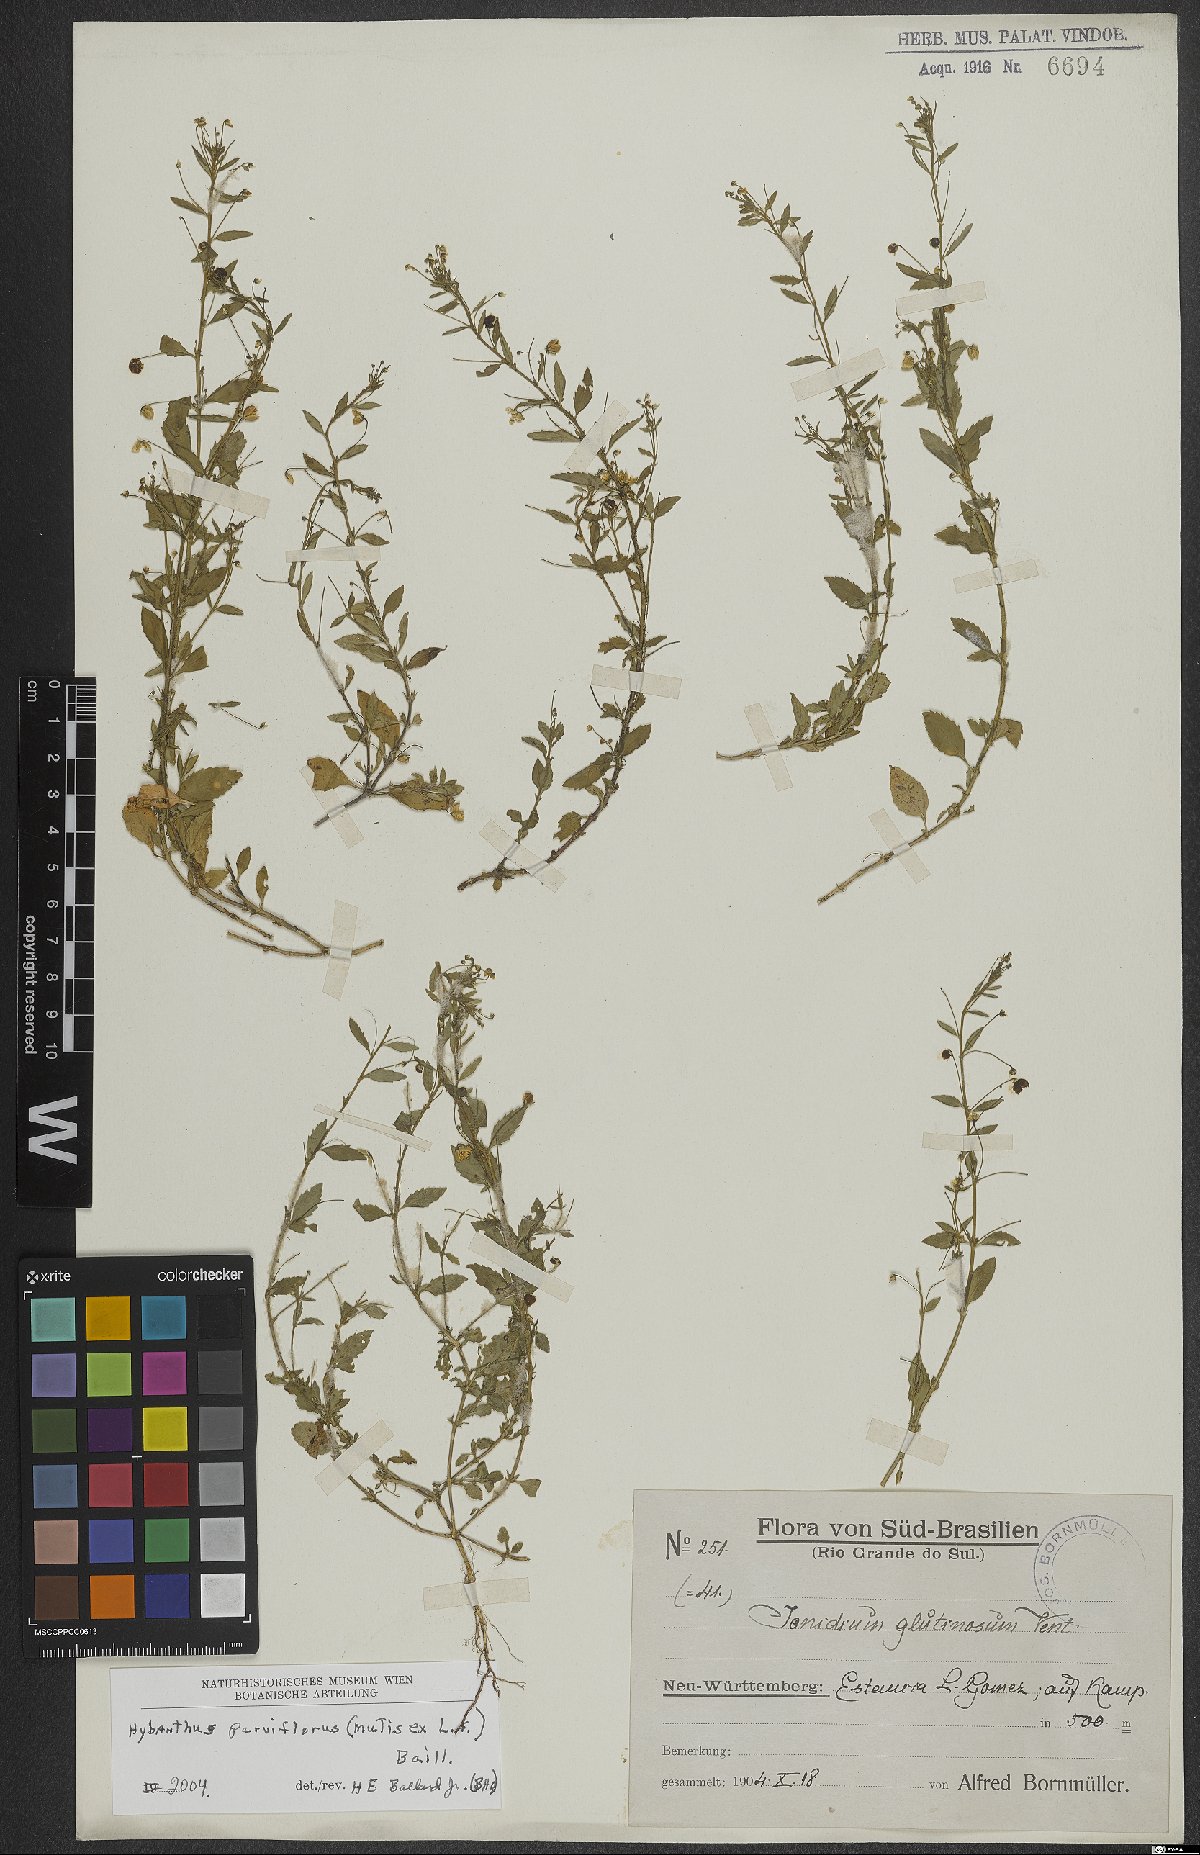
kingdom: Plantae
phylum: Tracheophyta
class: Magnoliopsida
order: Malpighiales
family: Violaceae
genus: Pombalia
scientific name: Pombalia parviflora
